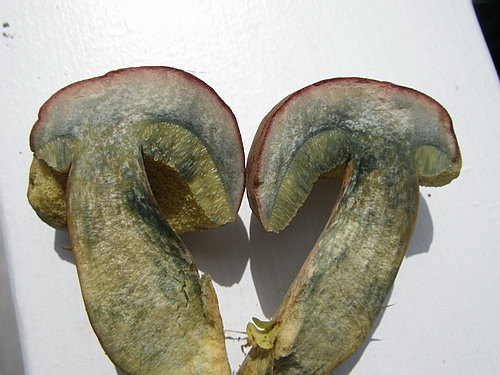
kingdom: Fungi
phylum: Basidiomycota
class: Agaricomycetes
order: Boletales
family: Boletaceae
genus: Hortiboletus
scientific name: Hortiboletus bubalinus
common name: aurora-rørhat
